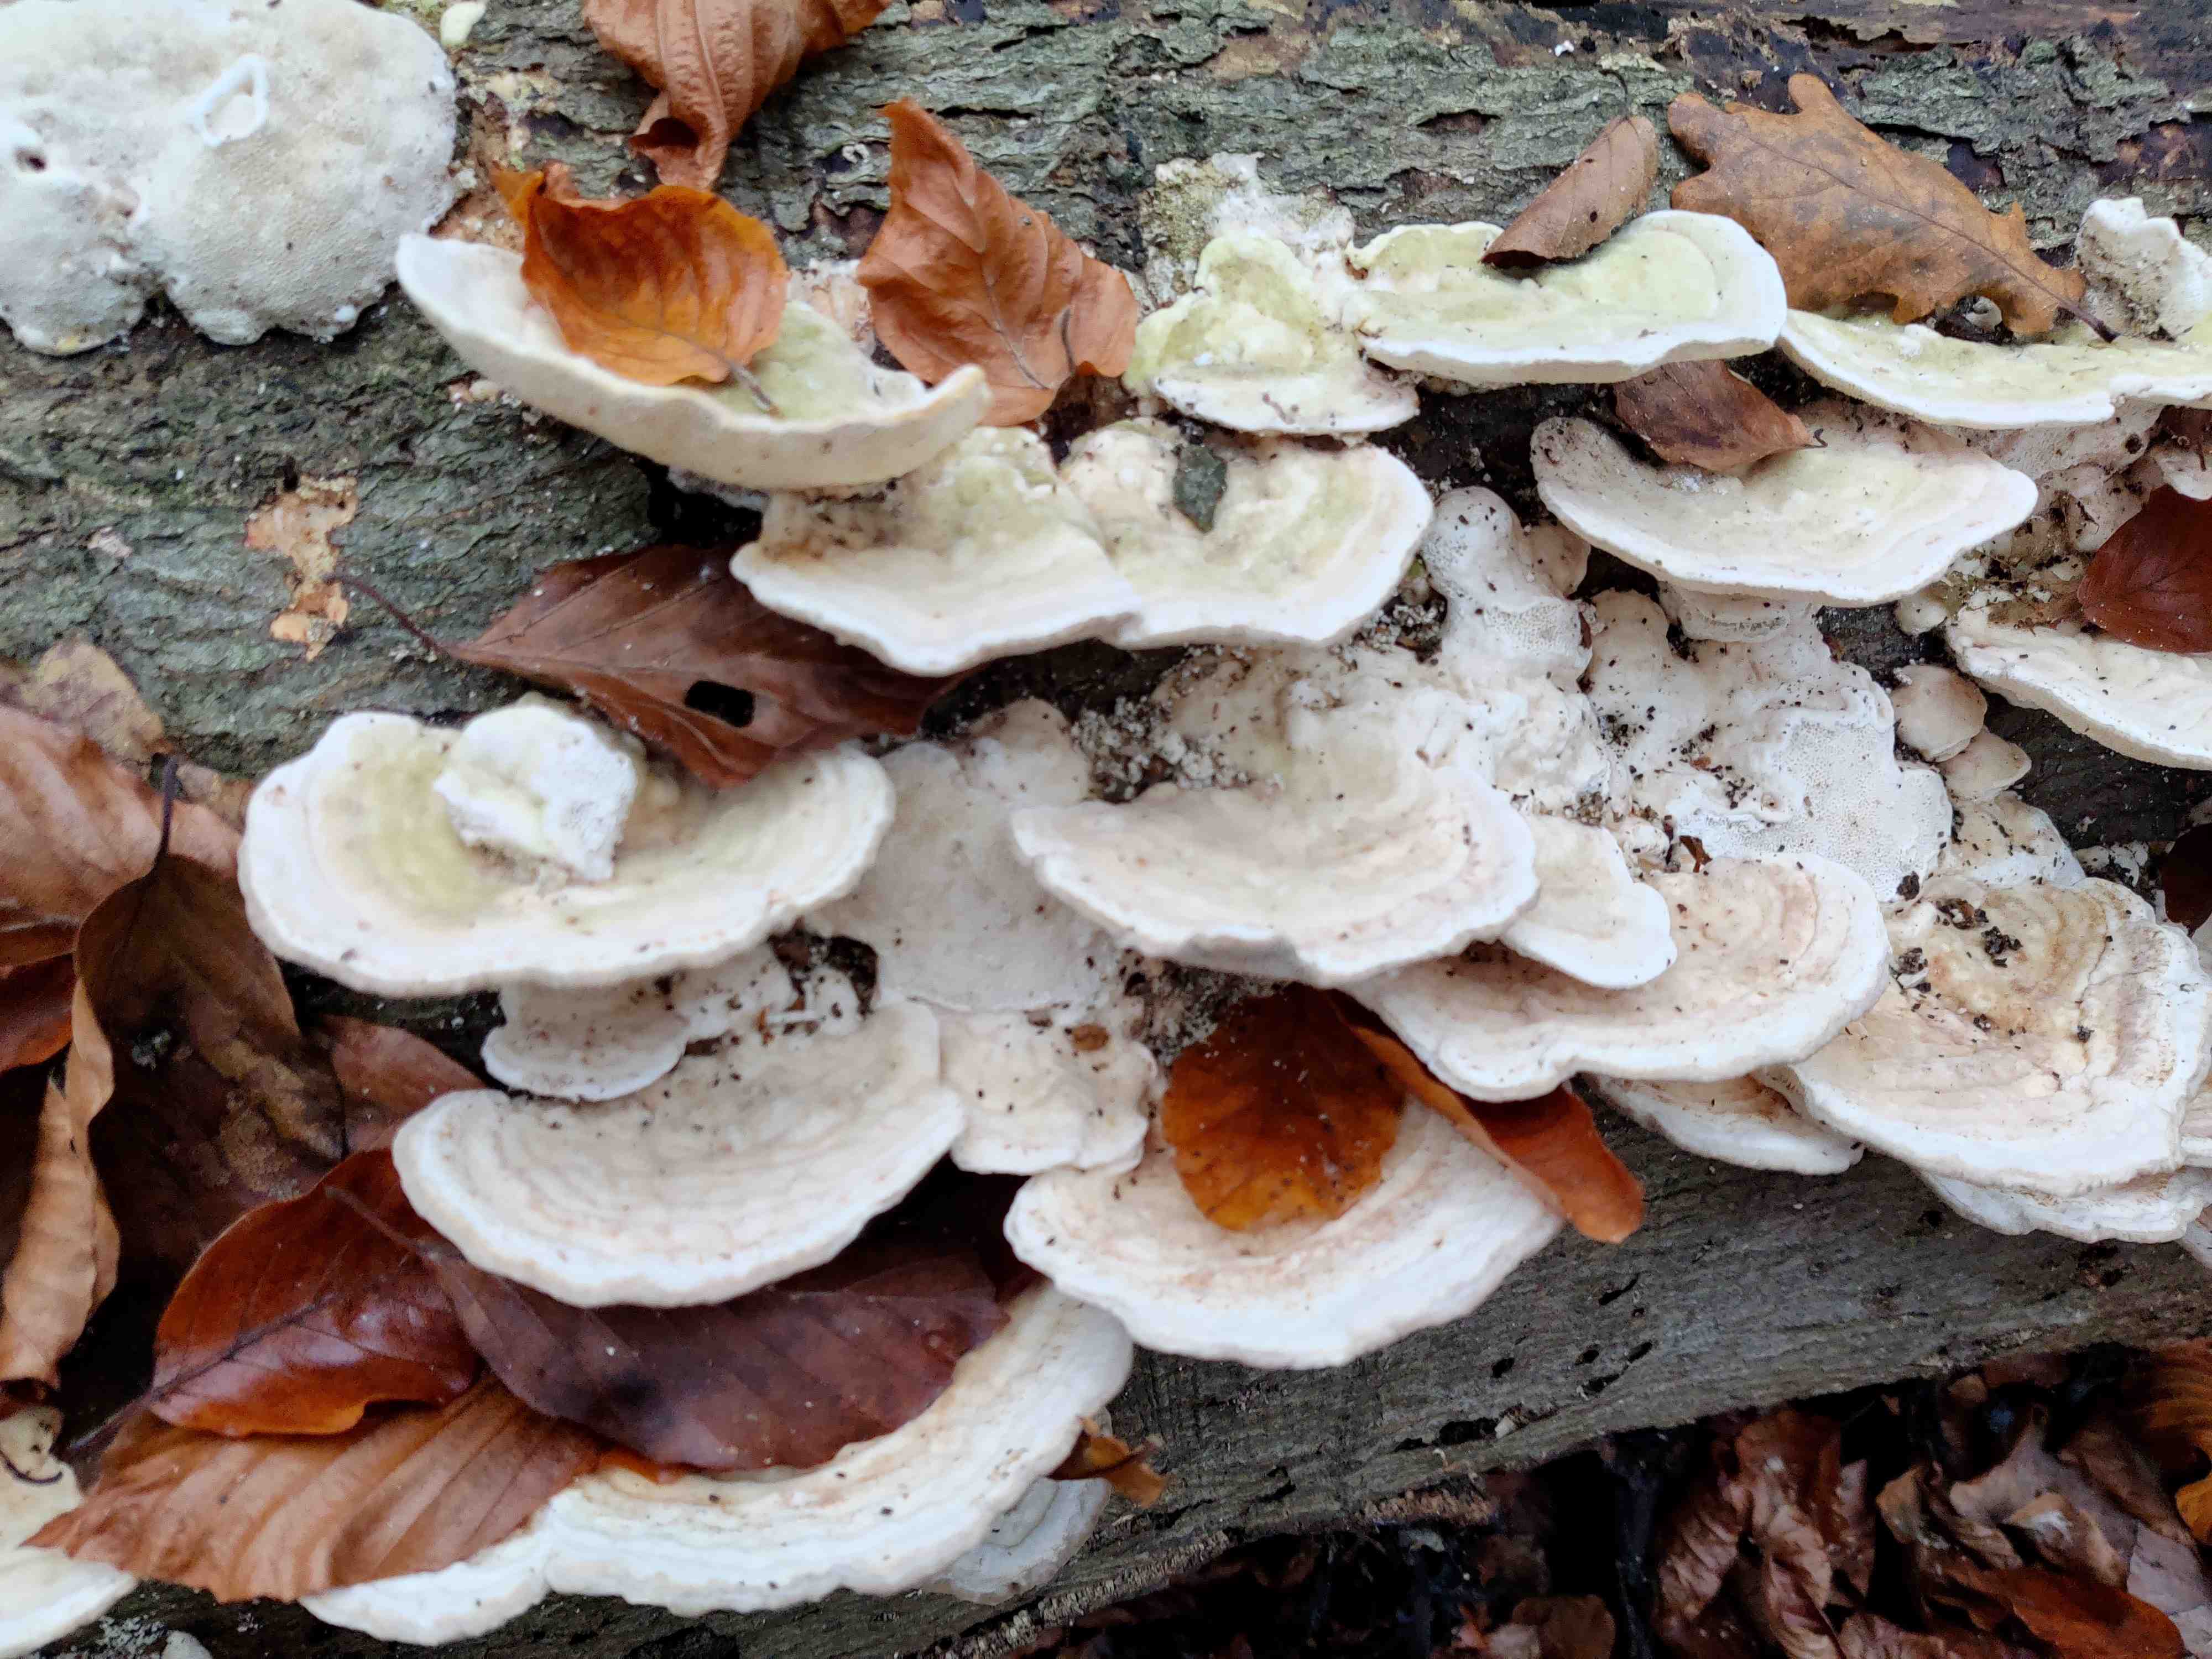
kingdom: Fungi
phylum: Basidiomycota
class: Agaricomycetes
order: Polyporales
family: Polyporaceae
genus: Trametes
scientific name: Trametes gibbosa
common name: puklet læderporesvamp
